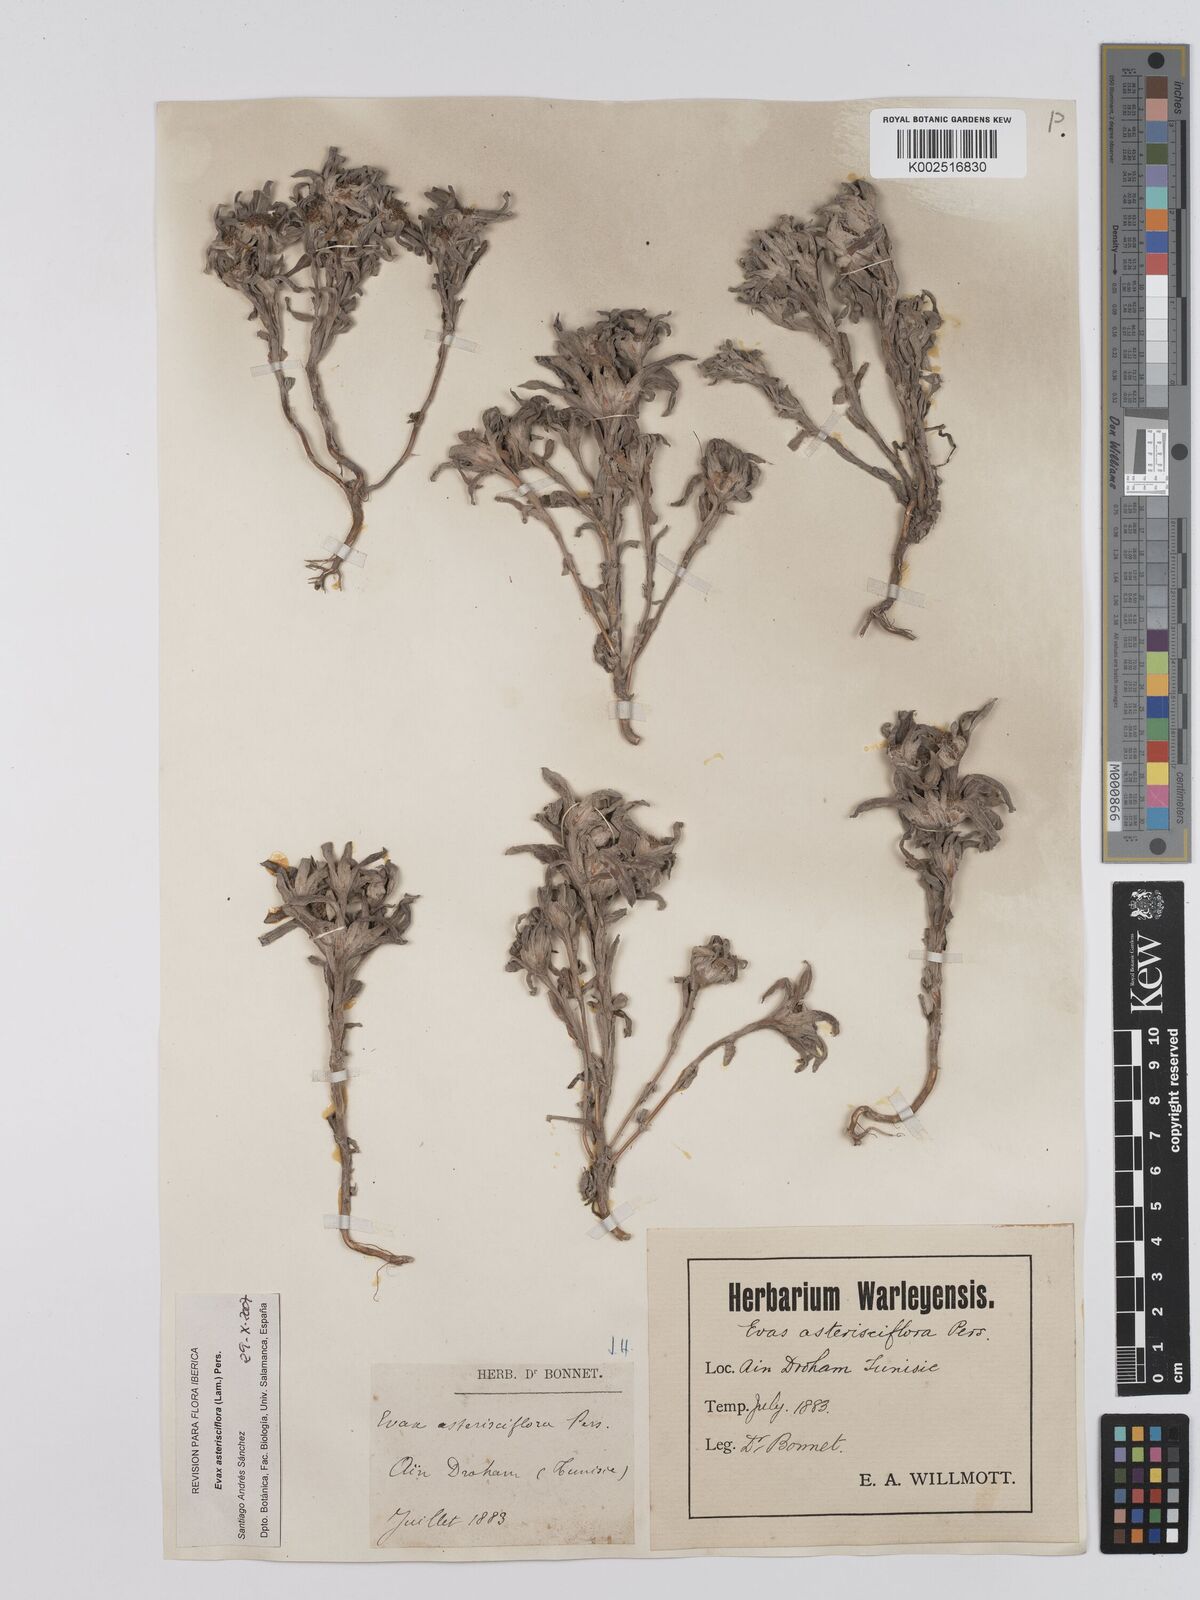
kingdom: Plantae
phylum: Tracheophyta
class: Magnoliopsida
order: Asterales
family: Asteraceae
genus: Filago
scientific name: Filago
